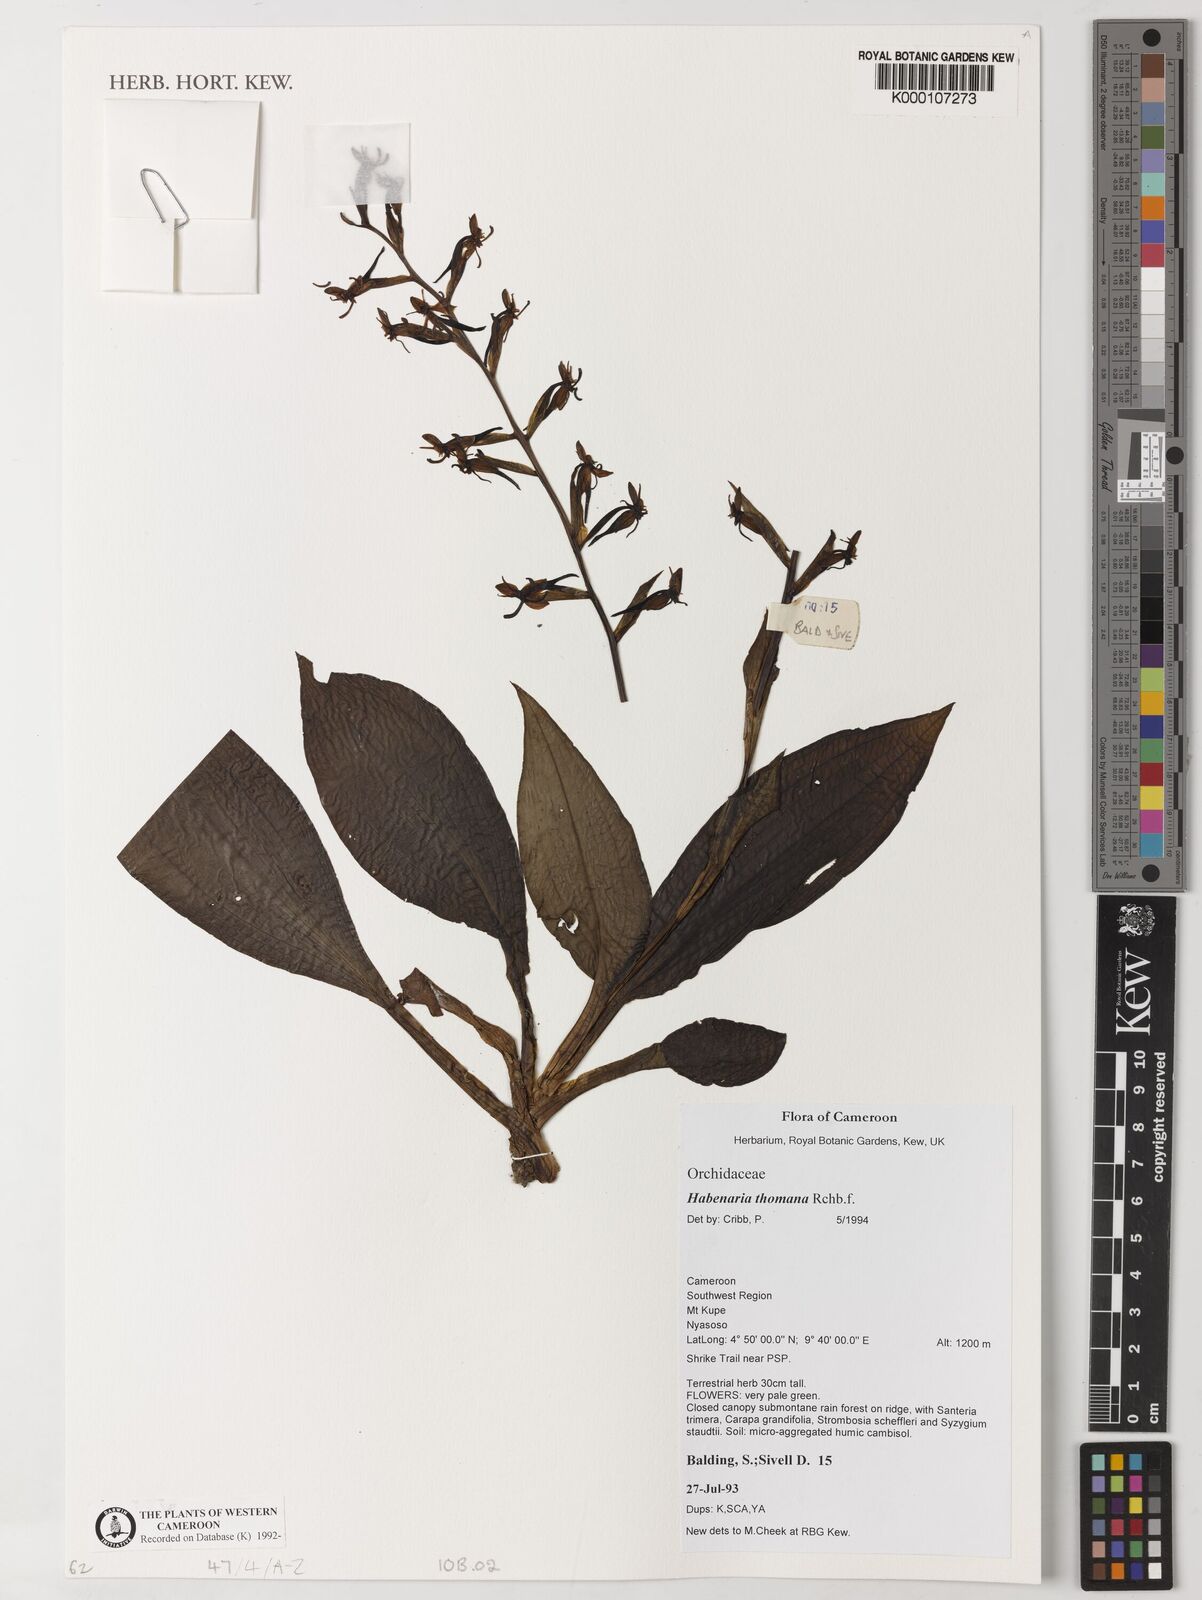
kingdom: Plantae
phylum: Tracheophyta
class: Liliopsida
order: Asparagales
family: Orchidaceae
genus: Habenaria
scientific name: Habenaria thomana
